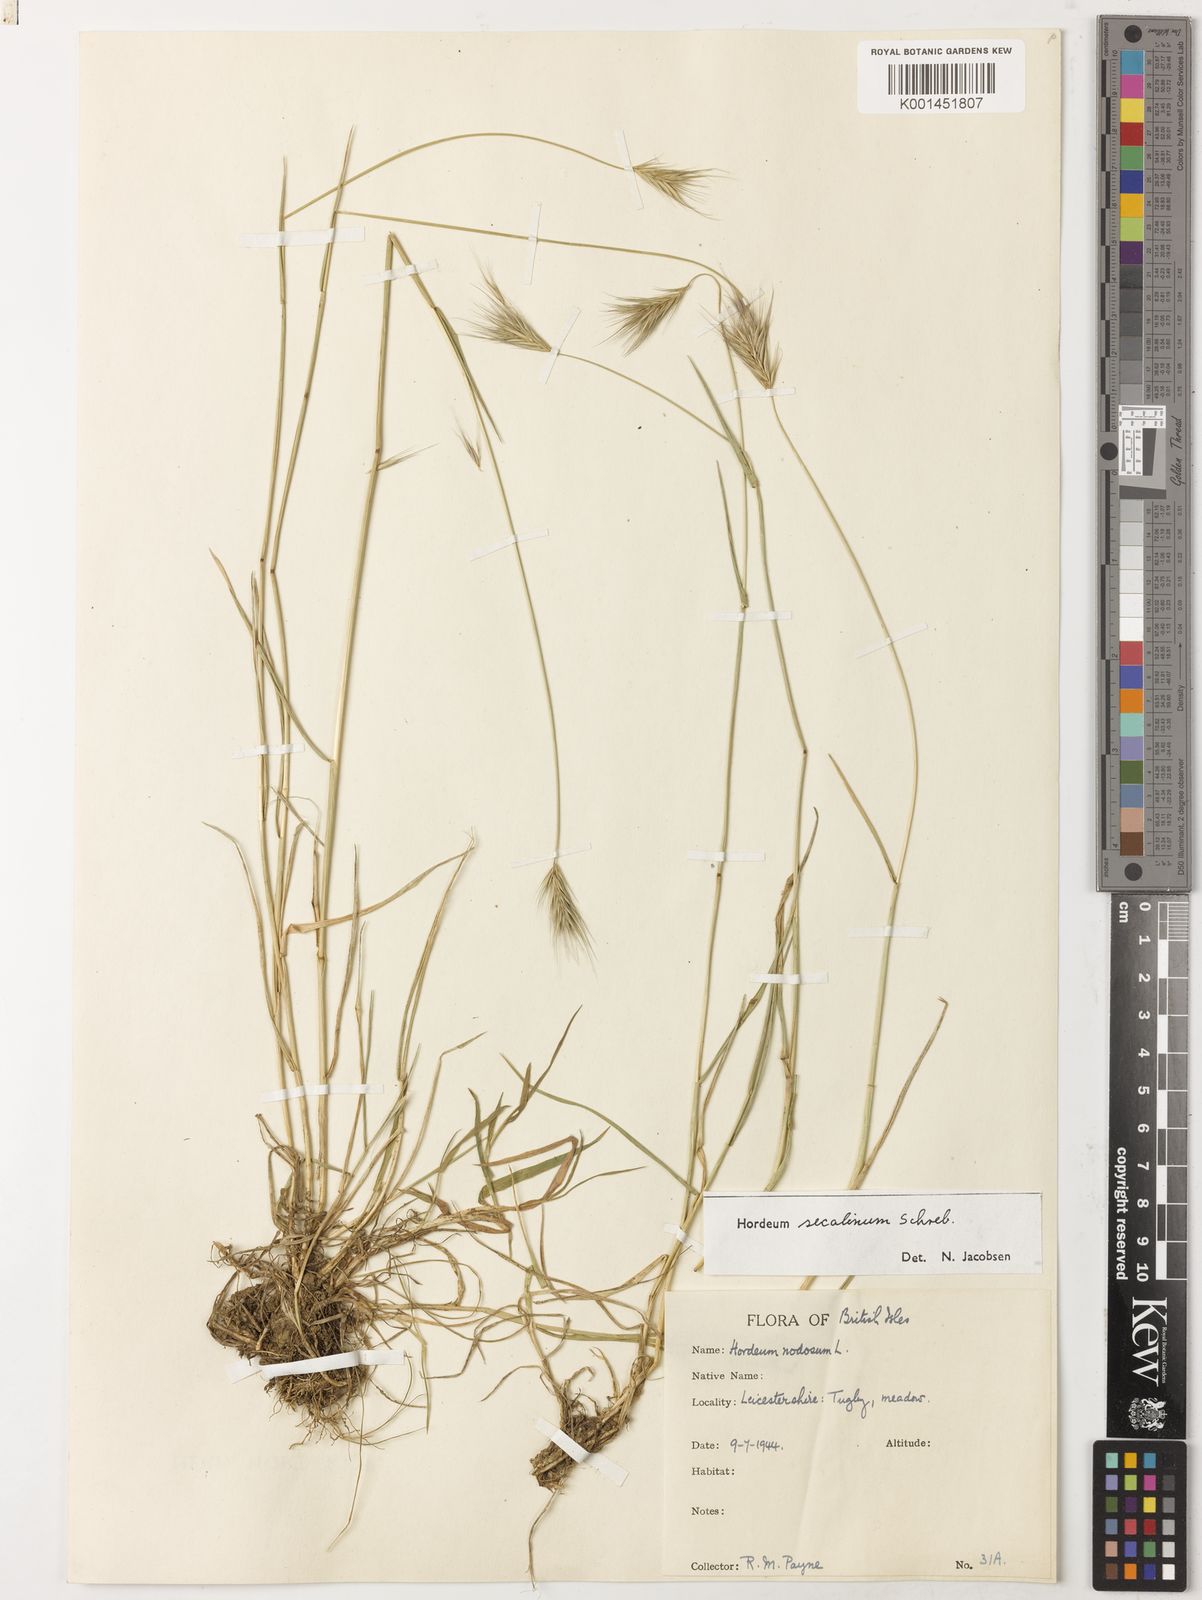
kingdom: Plantae
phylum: Tracheophyta
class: Liliopsida
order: Poales
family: Poaceae
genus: Hordeum
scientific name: Hordeum secalinum
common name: Meadow barley
